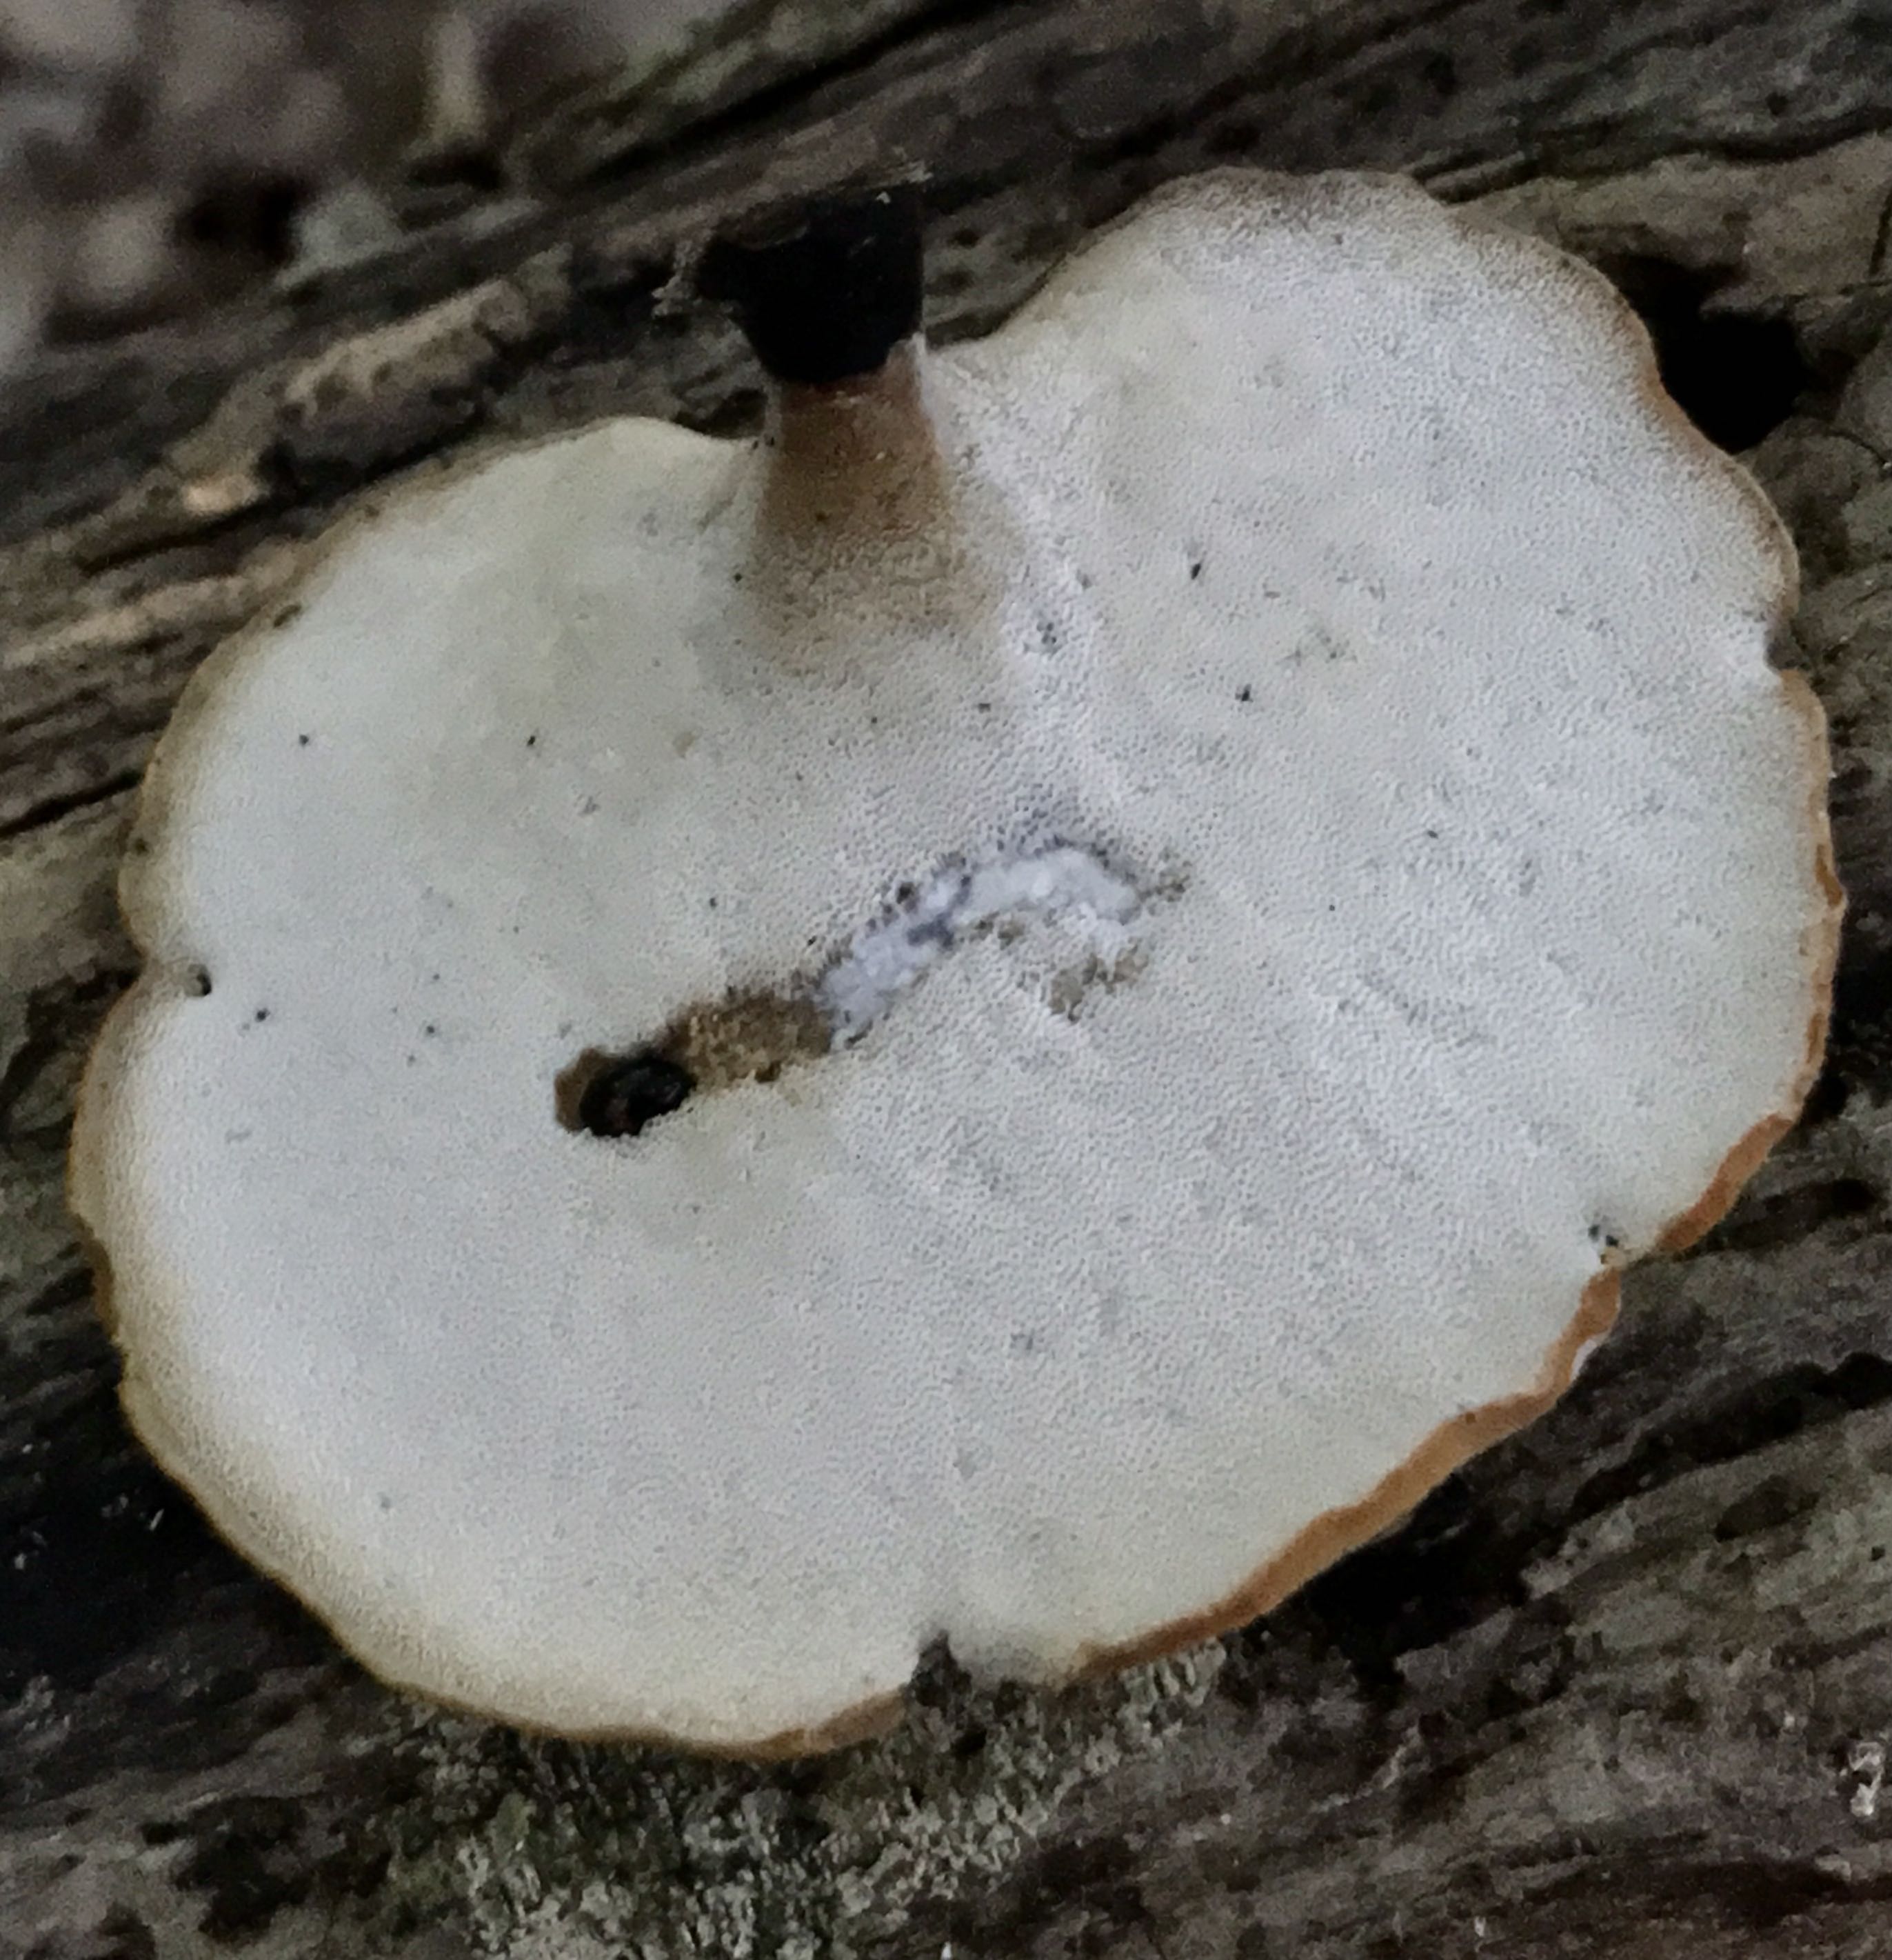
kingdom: Fungi
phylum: Basidiomycota
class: Agaricomycetes
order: Polyporales
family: Polyporaceae
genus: Cerioporus
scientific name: Cerioporus varius
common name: foranderlig stilkporesvamp
